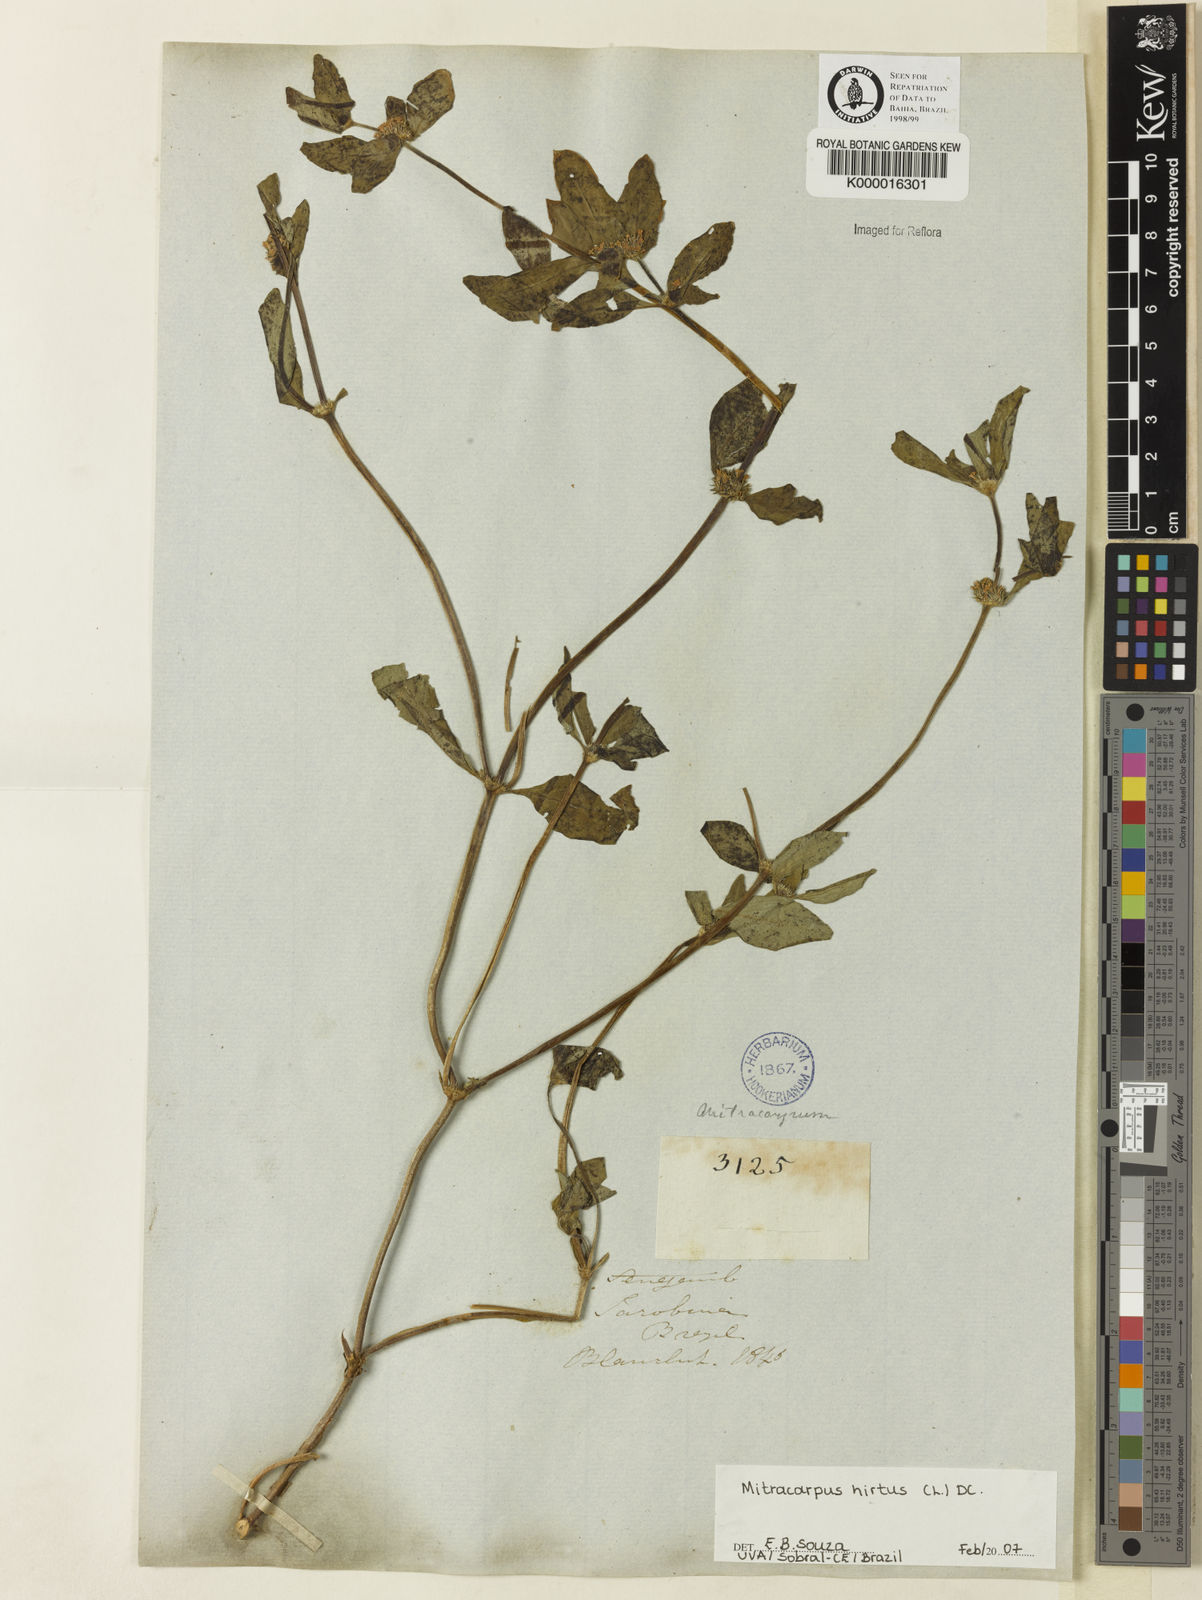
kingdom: Plantae
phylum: Tracheophyta
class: Magnoliopsida
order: Gentianales
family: Rubiaceae
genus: Mitracarpus
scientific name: Mitracarpus hirtus
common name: Tropical girdlepod
